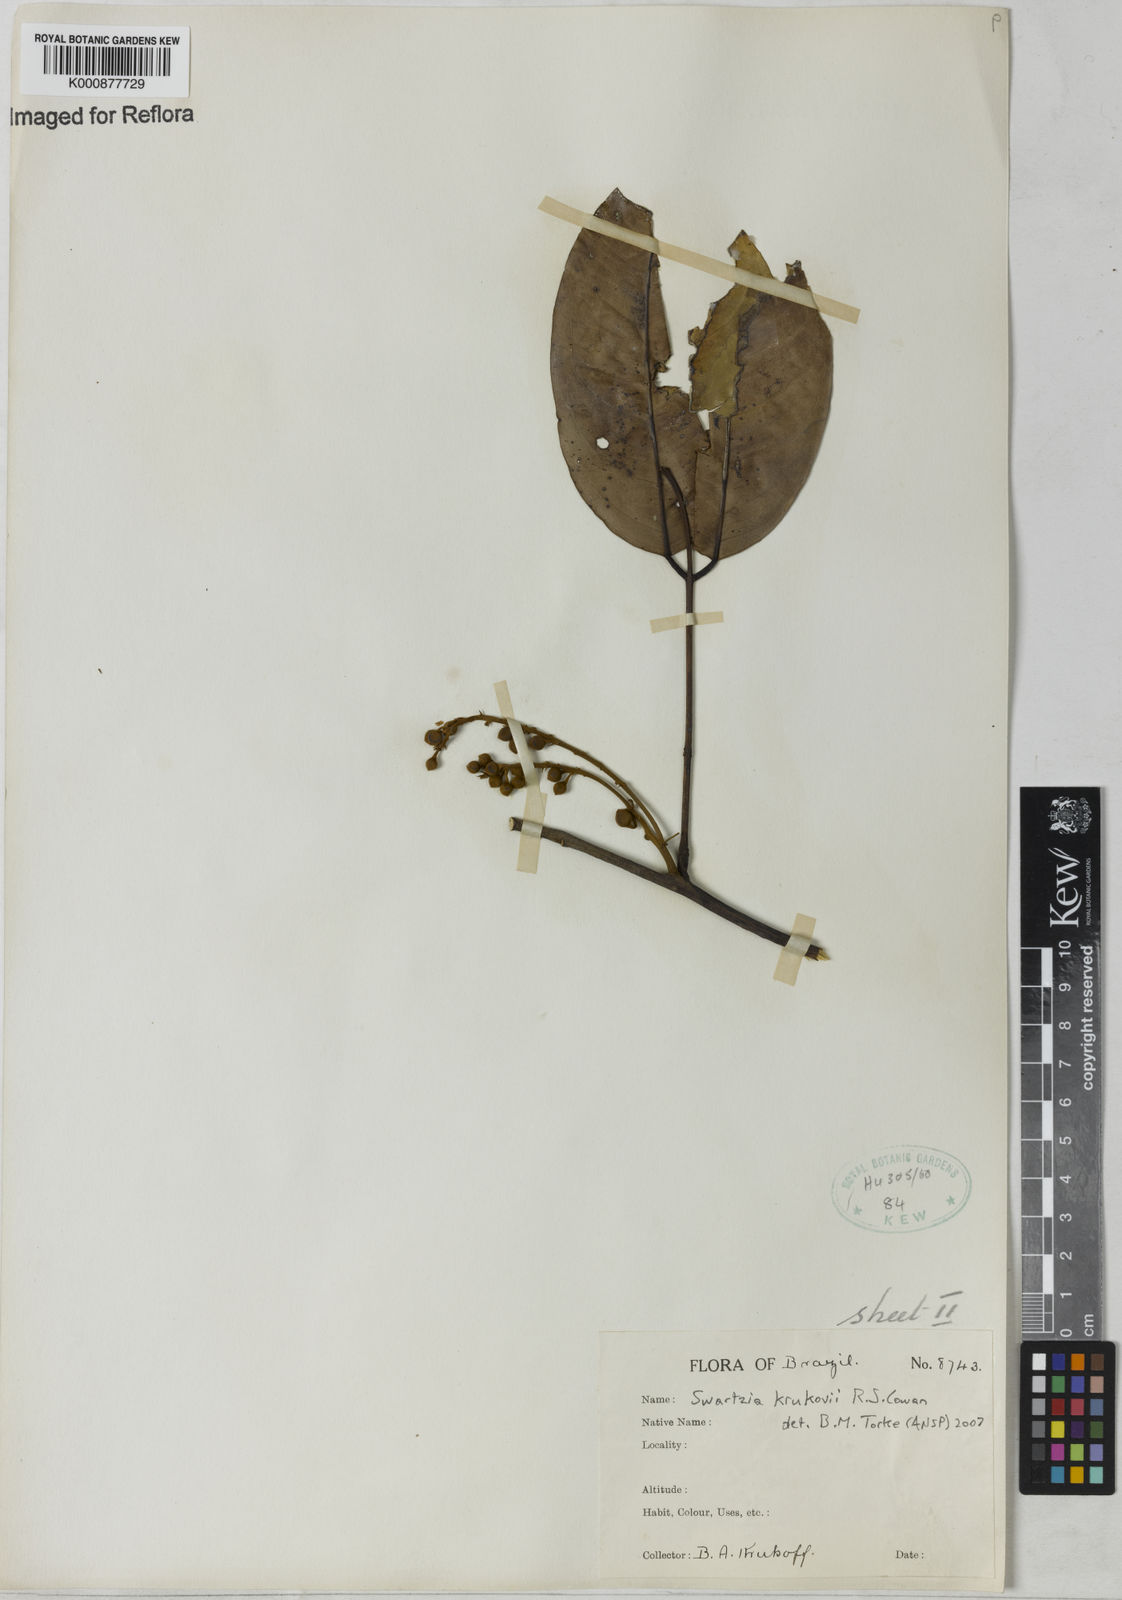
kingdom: Plantae
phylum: Tracheophyta
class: Magnoliopsida
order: Fabales
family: Fabaceae
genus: Swartzia
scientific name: Swartzia krukovii
